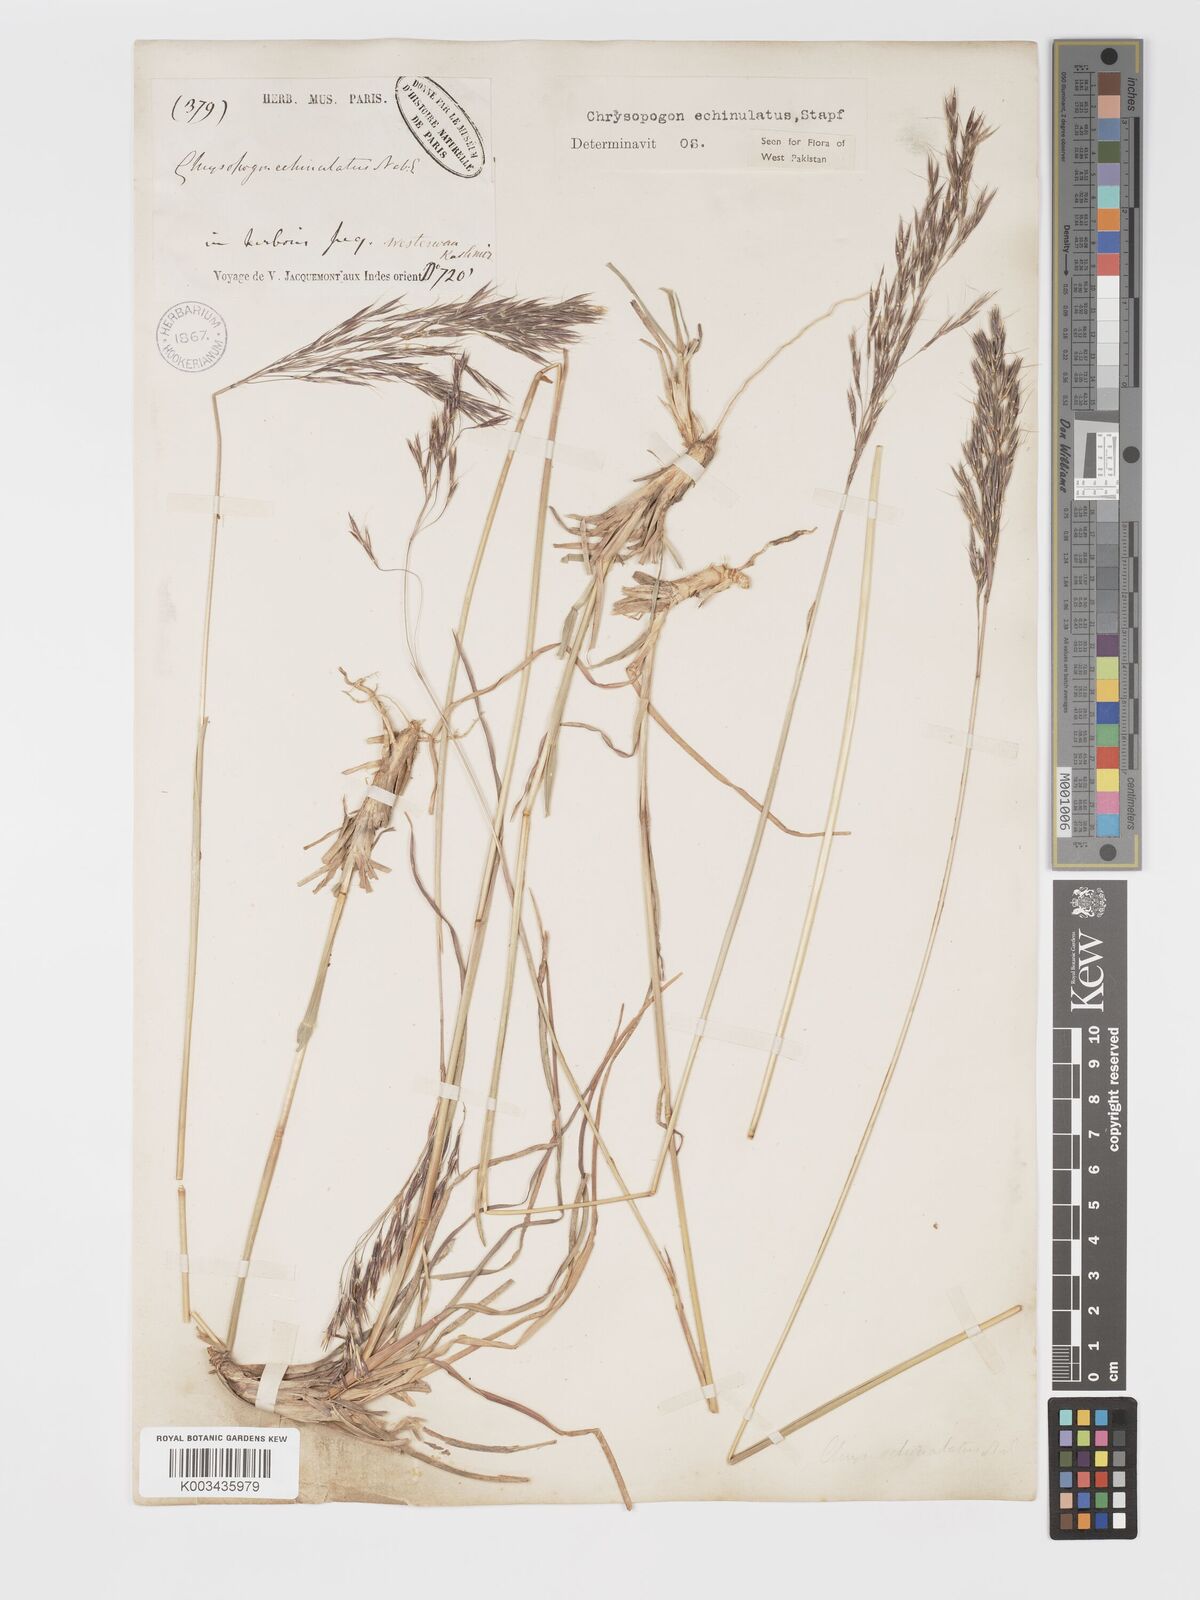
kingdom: Plantae
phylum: Tracheophyta
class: Liliopsida
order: Poales
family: Poaceae
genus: Chrysopogon
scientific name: Chrysopogon gryllus
